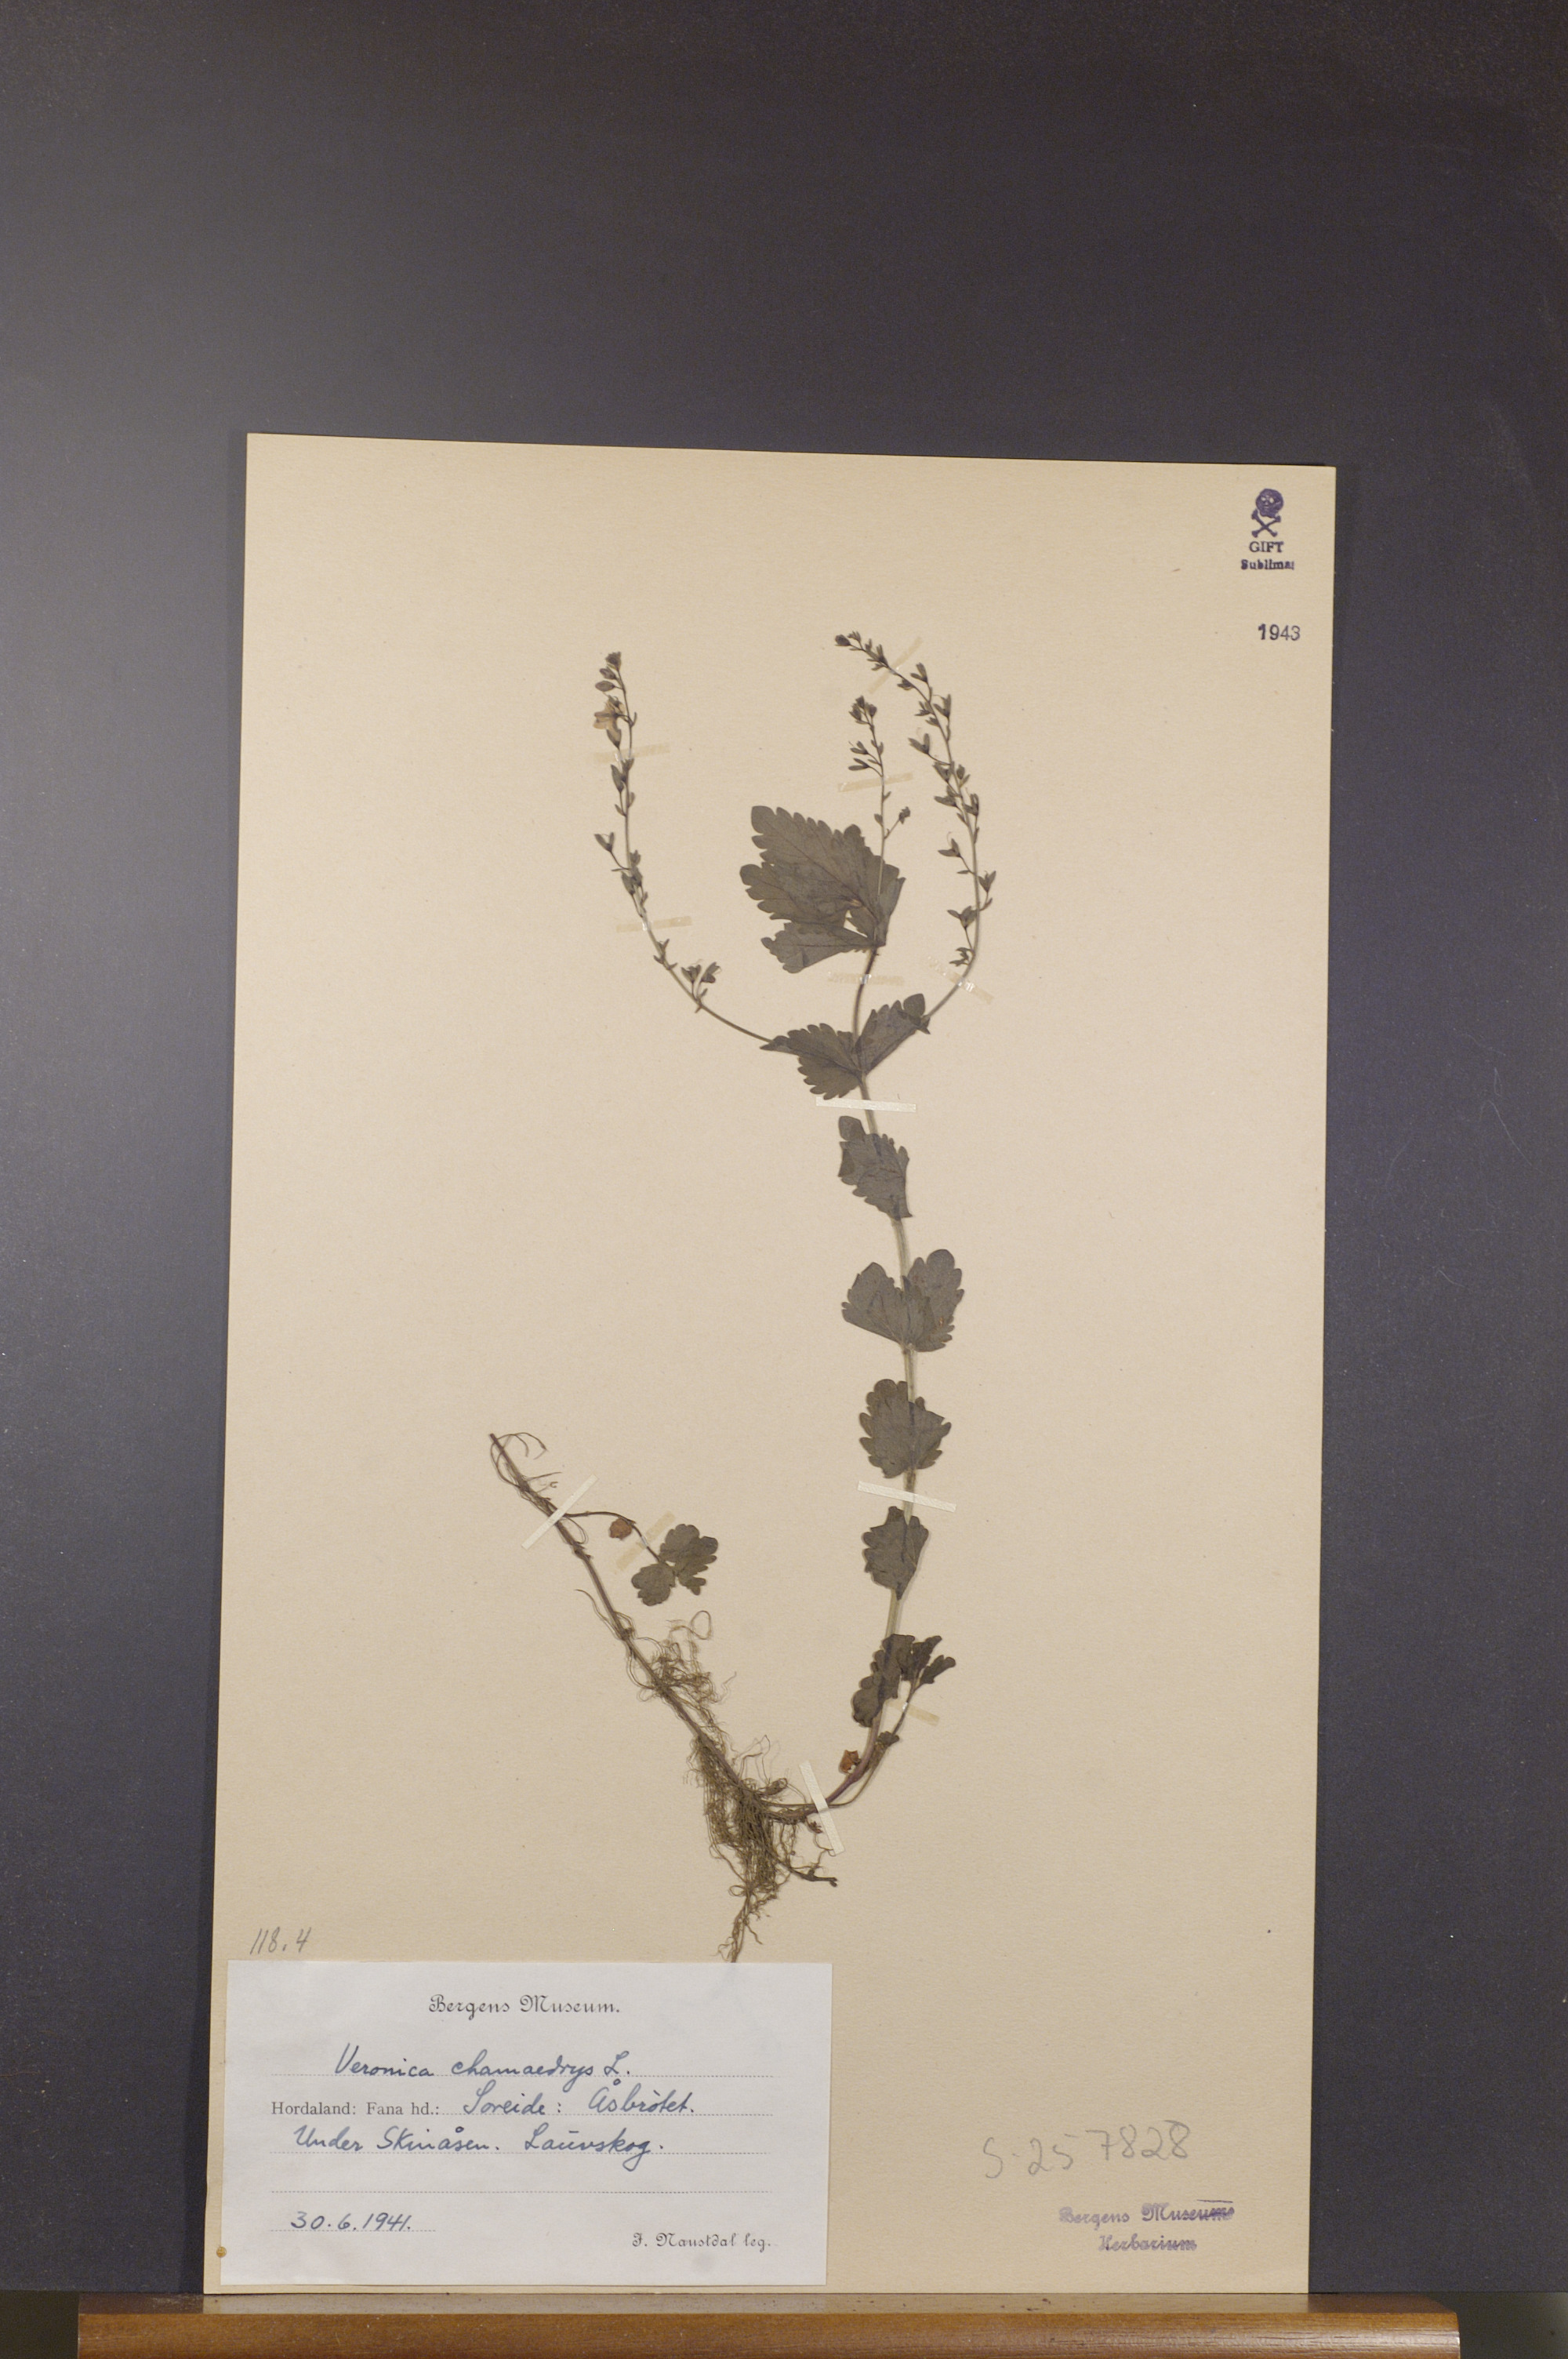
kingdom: Plantae
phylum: Tracheophyta
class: Magnoliopsida
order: Lamiales
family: Plantaginaceae
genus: Veronica
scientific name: Veronica chamaedrys
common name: Germander speedwell
